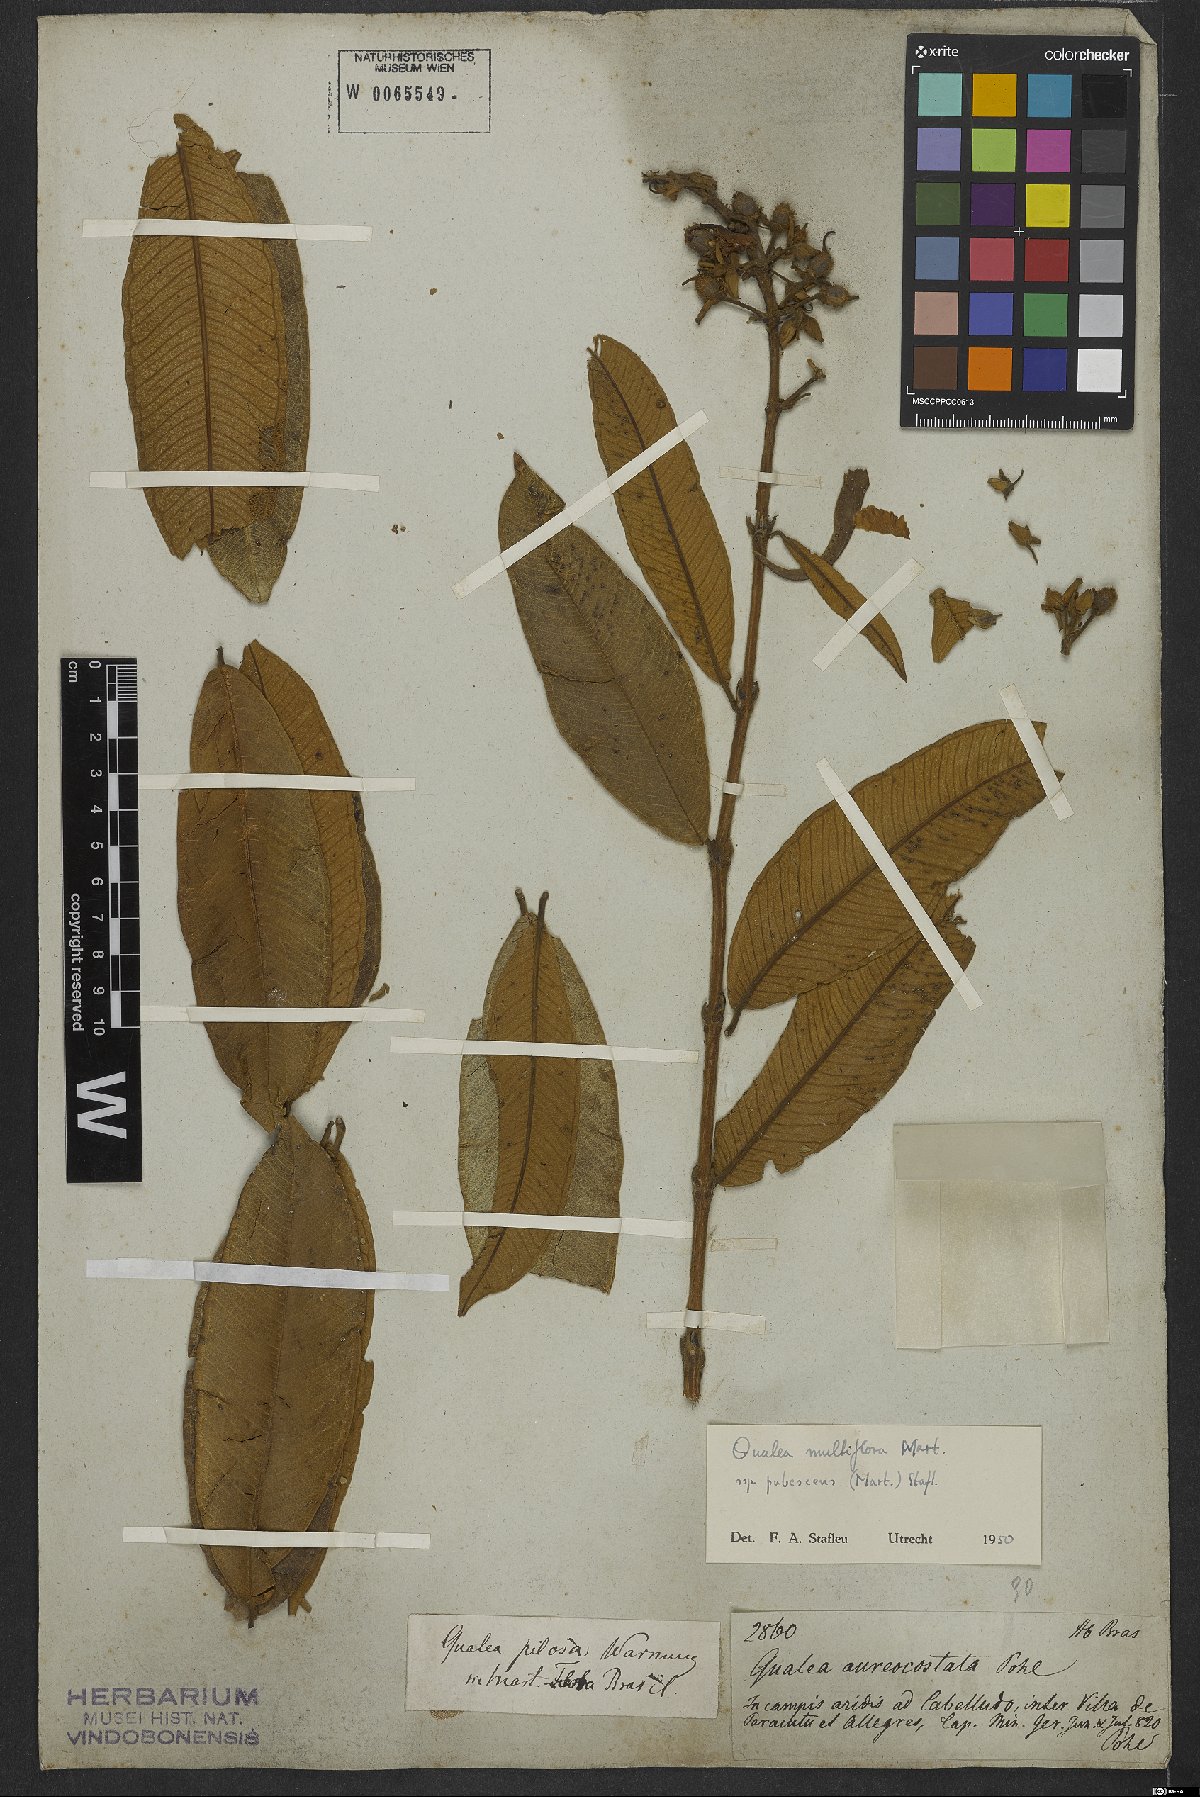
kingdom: Plantae
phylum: Tracheophyta
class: Magnoliopsida
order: Myrtales
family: Vochysiaceae
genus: Qualea
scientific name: Qualea multiflora
